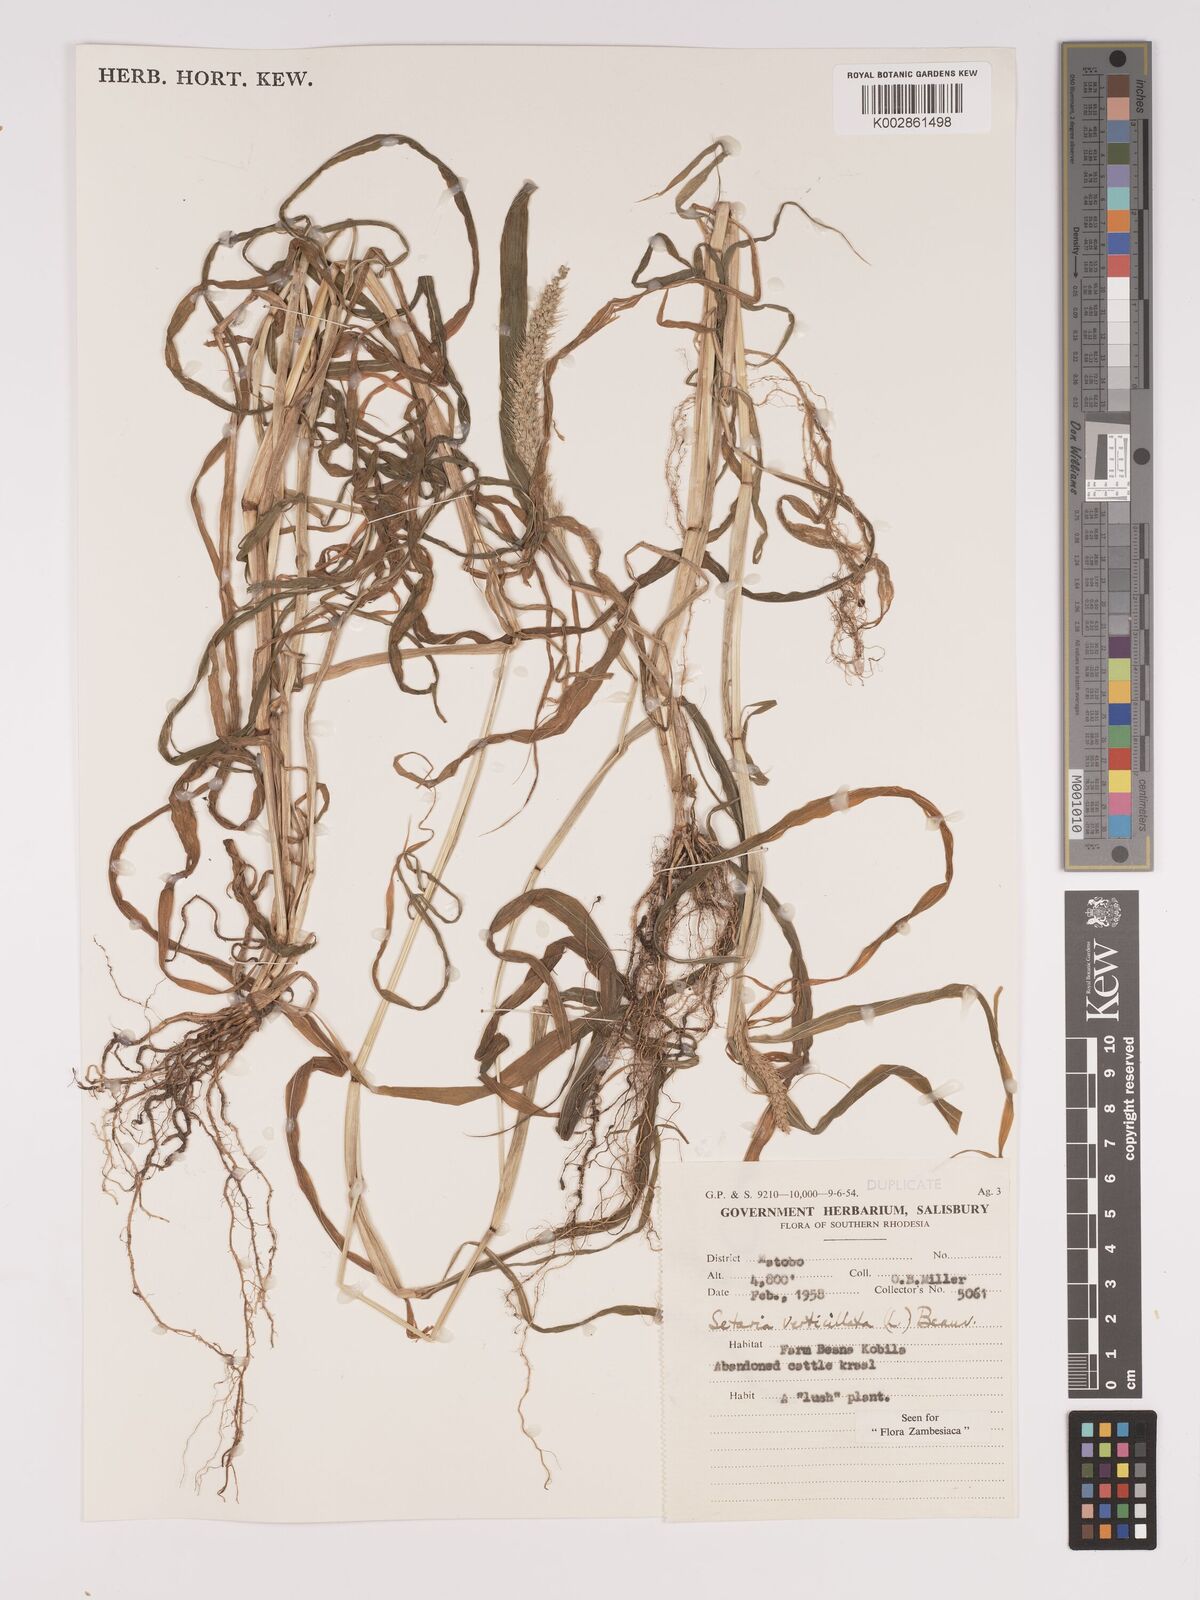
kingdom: Plantae
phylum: Tracheophyta
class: Liliopsida
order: Poales
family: Poaceae
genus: Setaria
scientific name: Setaria verticillata
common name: Hooked bristlegrass
